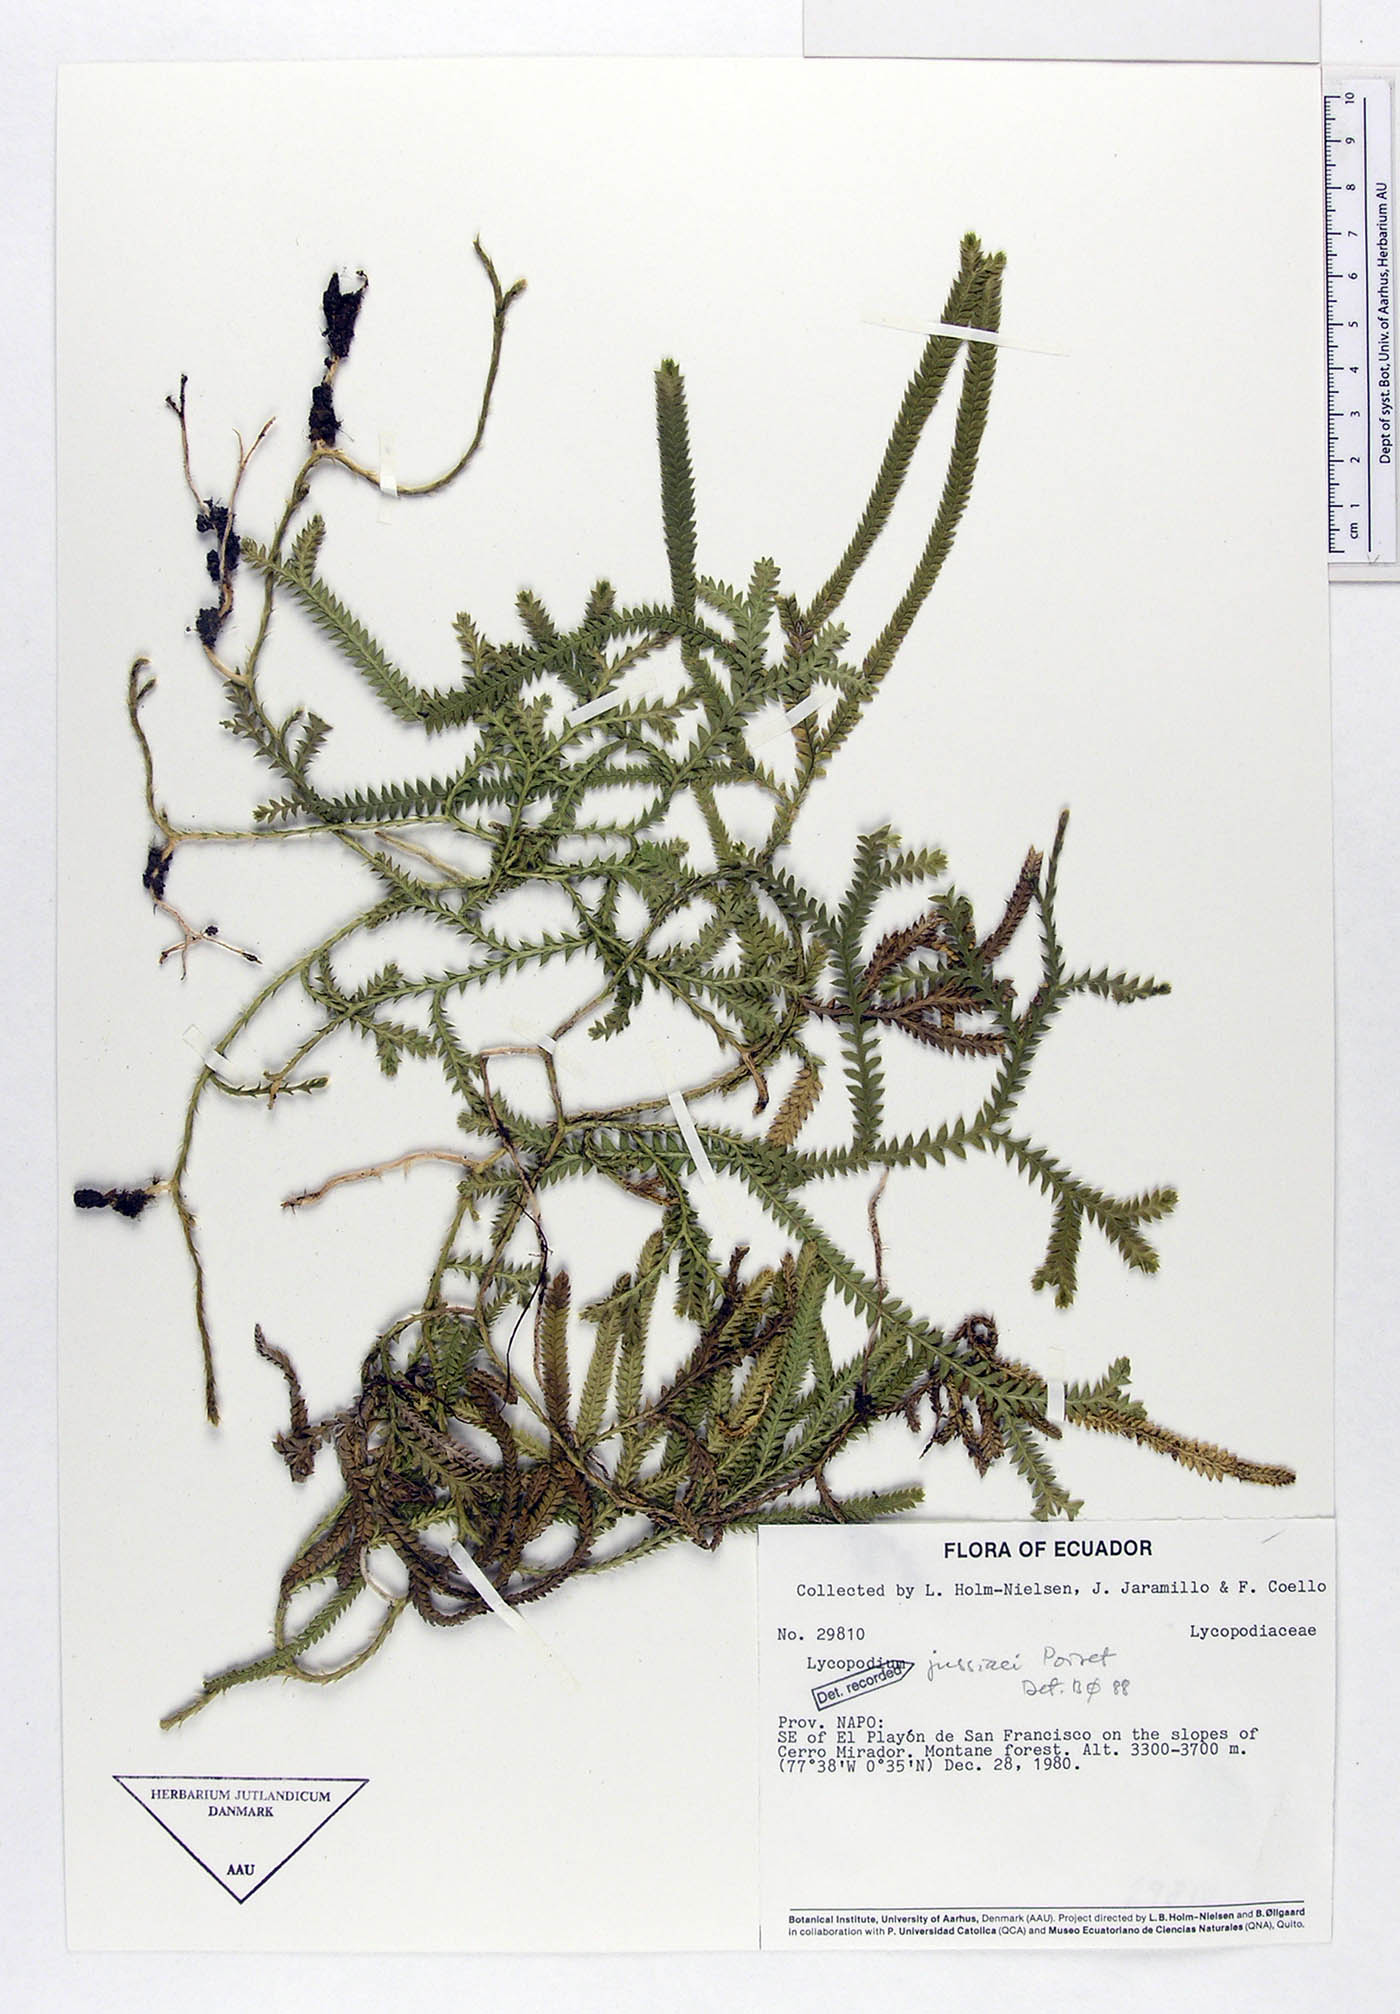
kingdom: Plantae
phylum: Tracheophyta
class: Lycopodiopsida
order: Lycopodiales
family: Lycopodiaceae
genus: Diphasium
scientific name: Diphasium jussiaei
